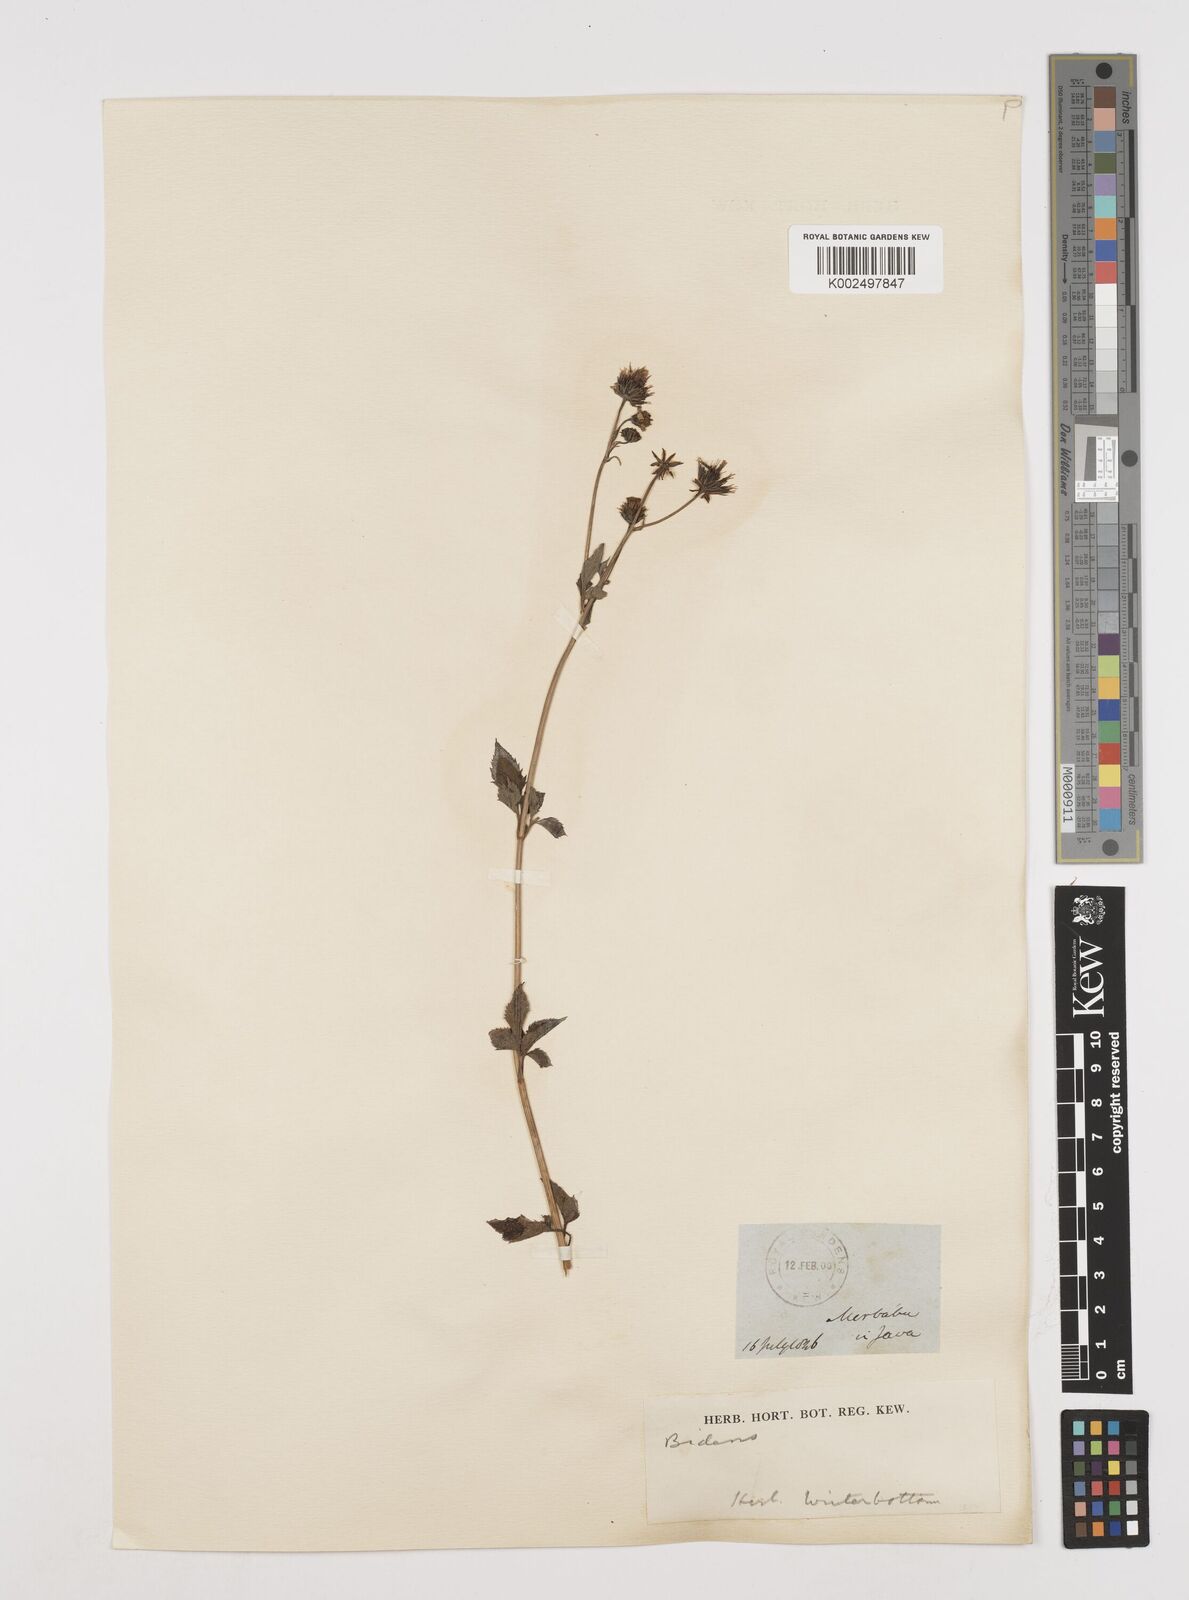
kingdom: Plantae
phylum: Tracheophyta
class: Magnoliopsida
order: Asterales
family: Asteraceae
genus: Bidens
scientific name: Bidens biternata
